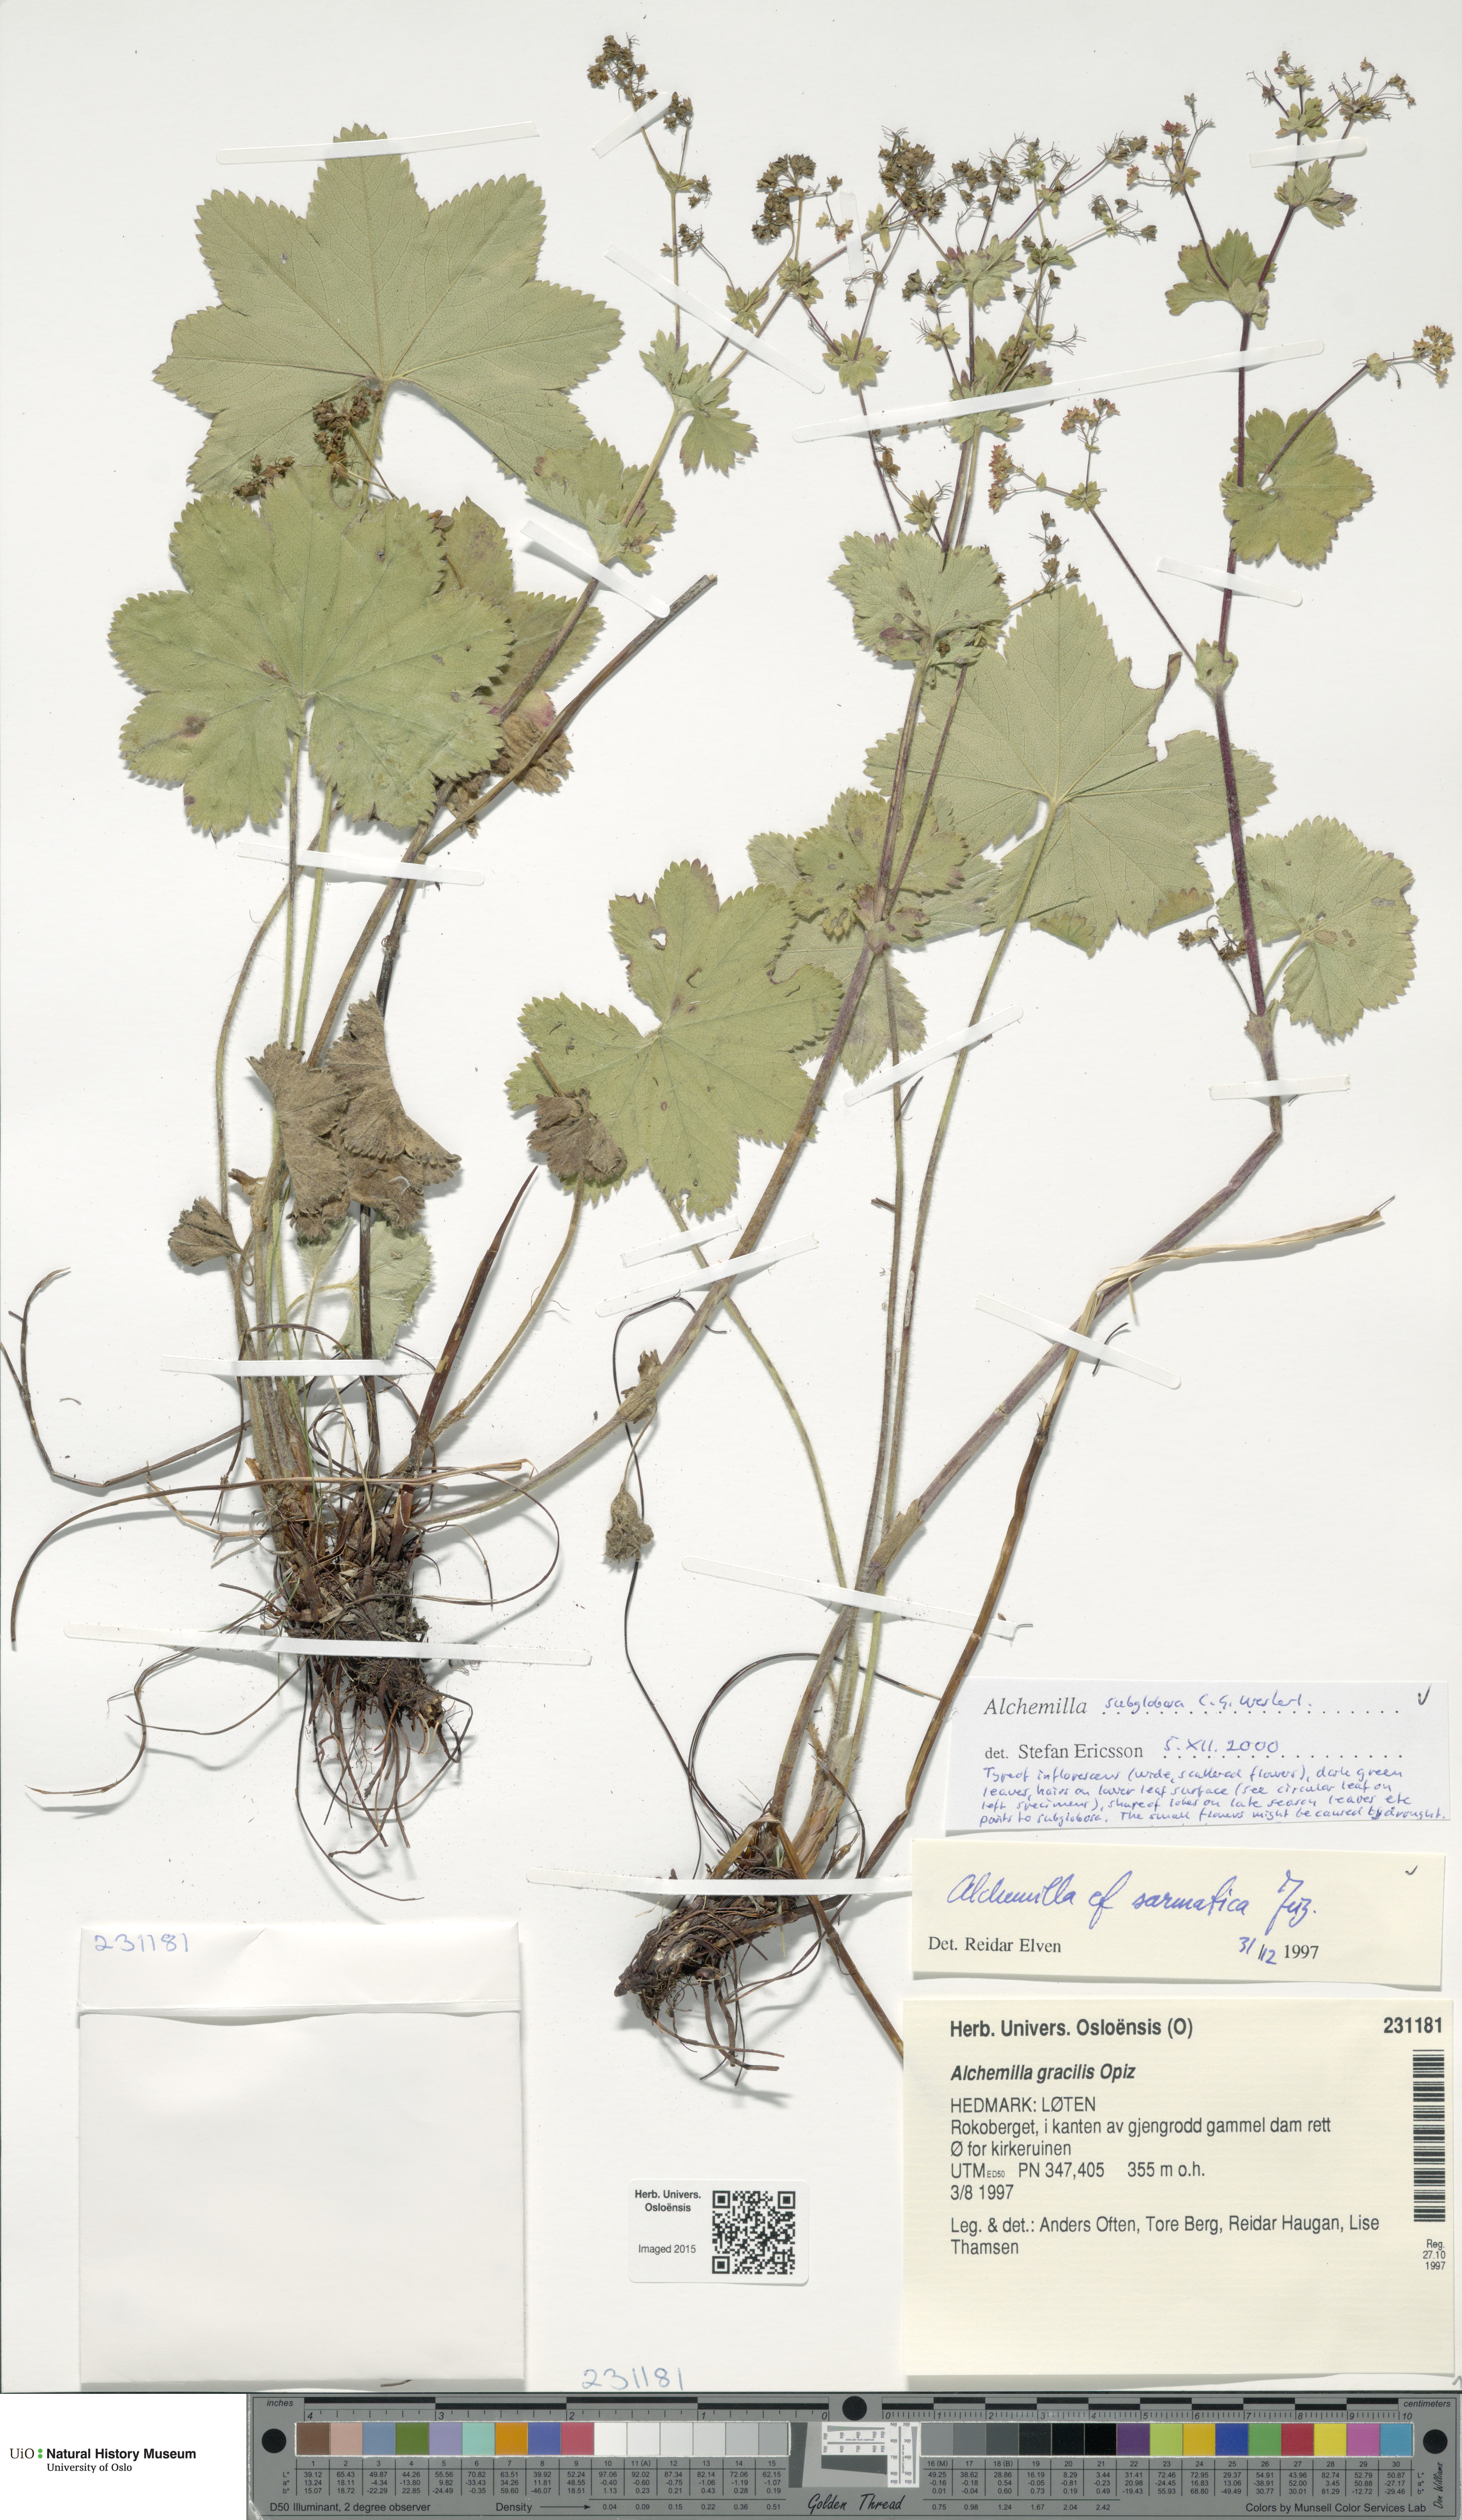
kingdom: Plantae
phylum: Tracheophyta
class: Magnoliopsida
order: Rosales
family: Rosaceae
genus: Alchemilla
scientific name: Alchemilla subglobosa
